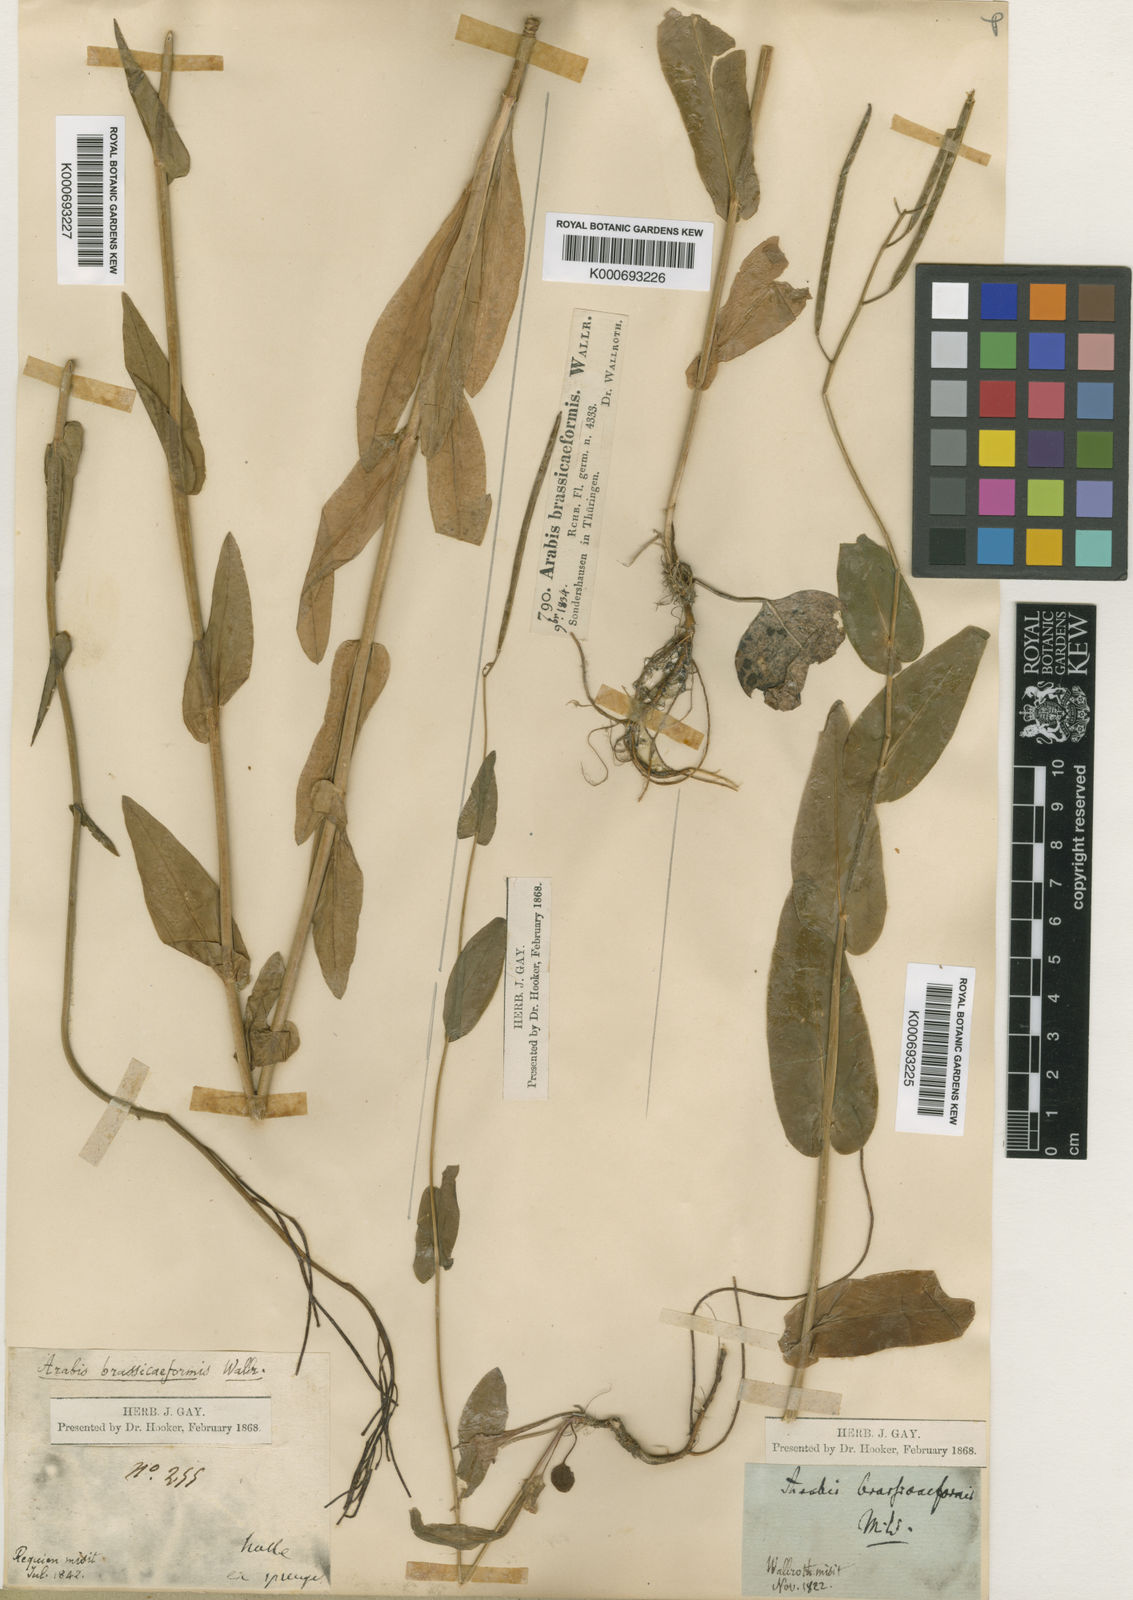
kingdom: Plantae
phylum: Tracheophyta
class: Magnoliopsida
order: Brassicales
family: Brassicaceae
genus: Fourraea
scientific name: Fourraea alpina
